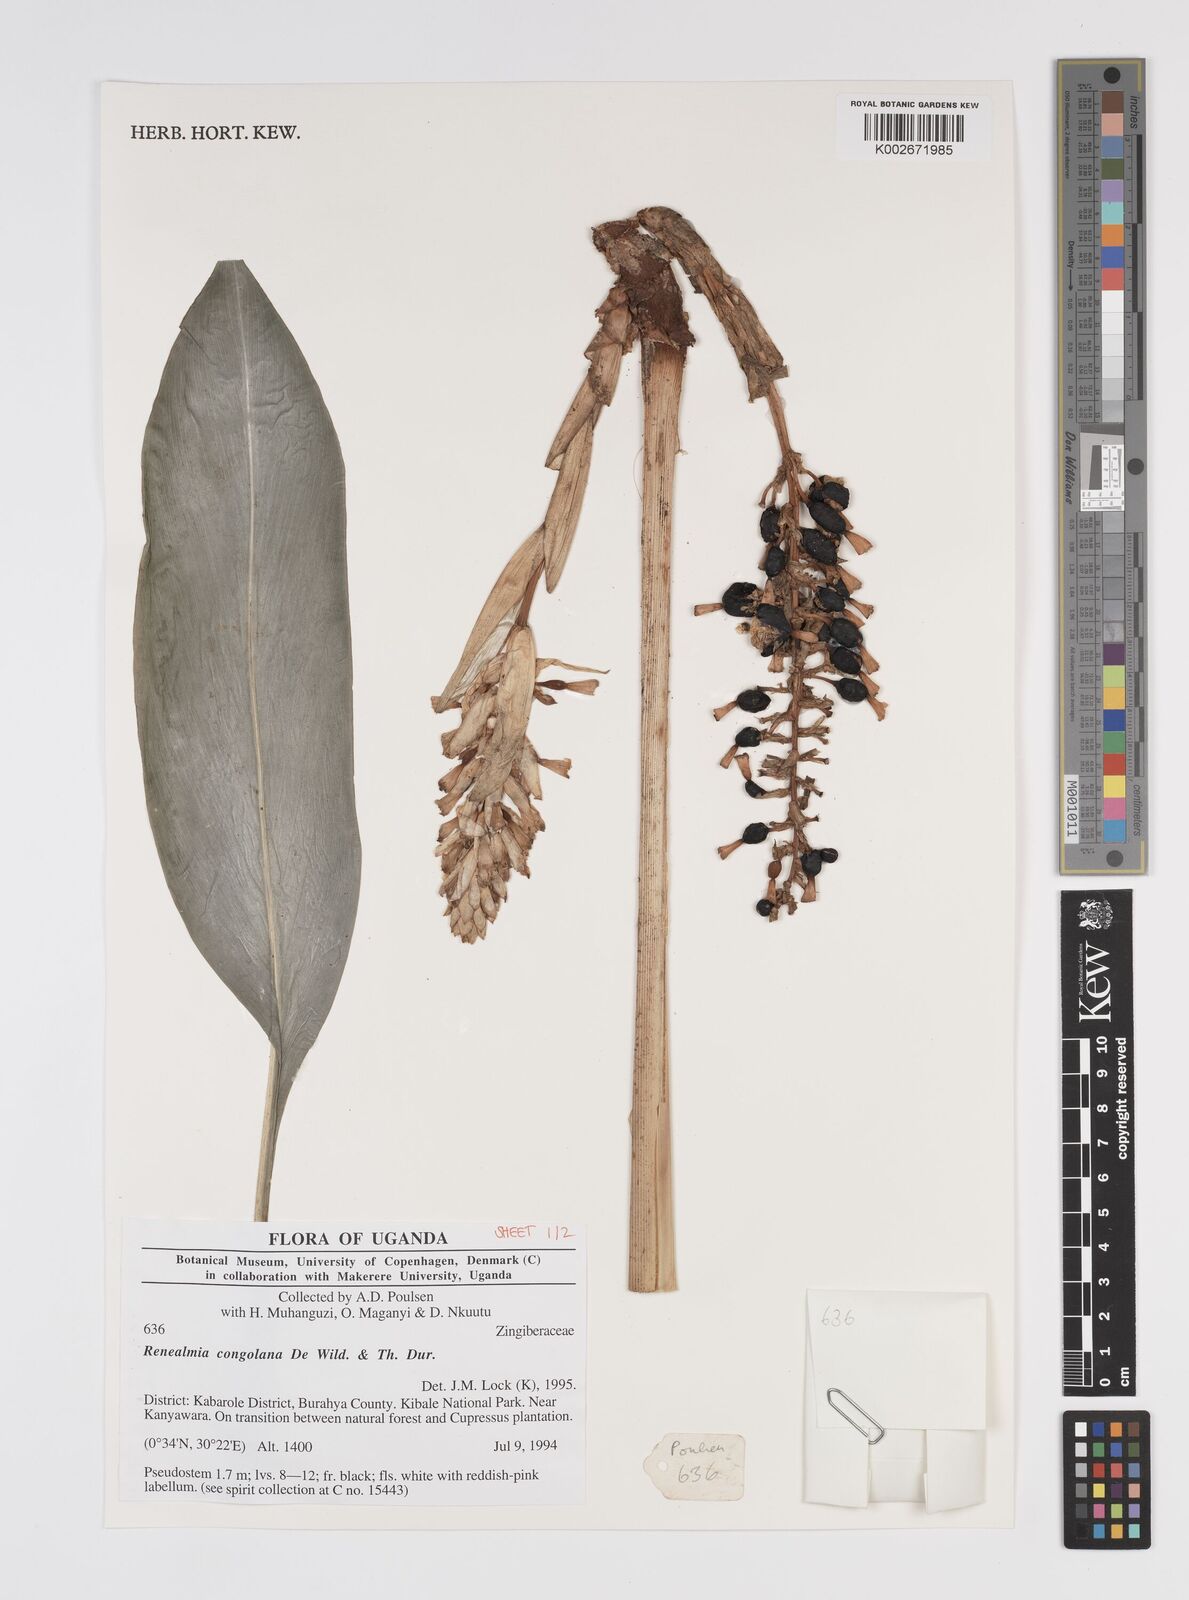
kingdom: Plantae
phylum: Tracheophyta
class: Liliopsida
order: Zingiberales
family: Zingiberaceae
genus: Renealmia
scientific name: Renealmia congolana
